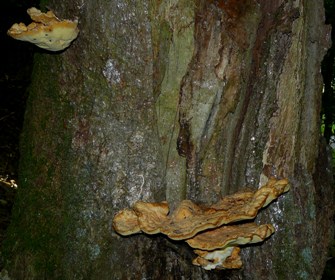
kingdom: Fungi
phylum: Basidiomycota
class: Agaricomycetes
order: Polyporales
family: Laetiporaceae
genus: Laetiporus
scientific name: Laetiporus sulphureus
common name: svovlporesvamp
